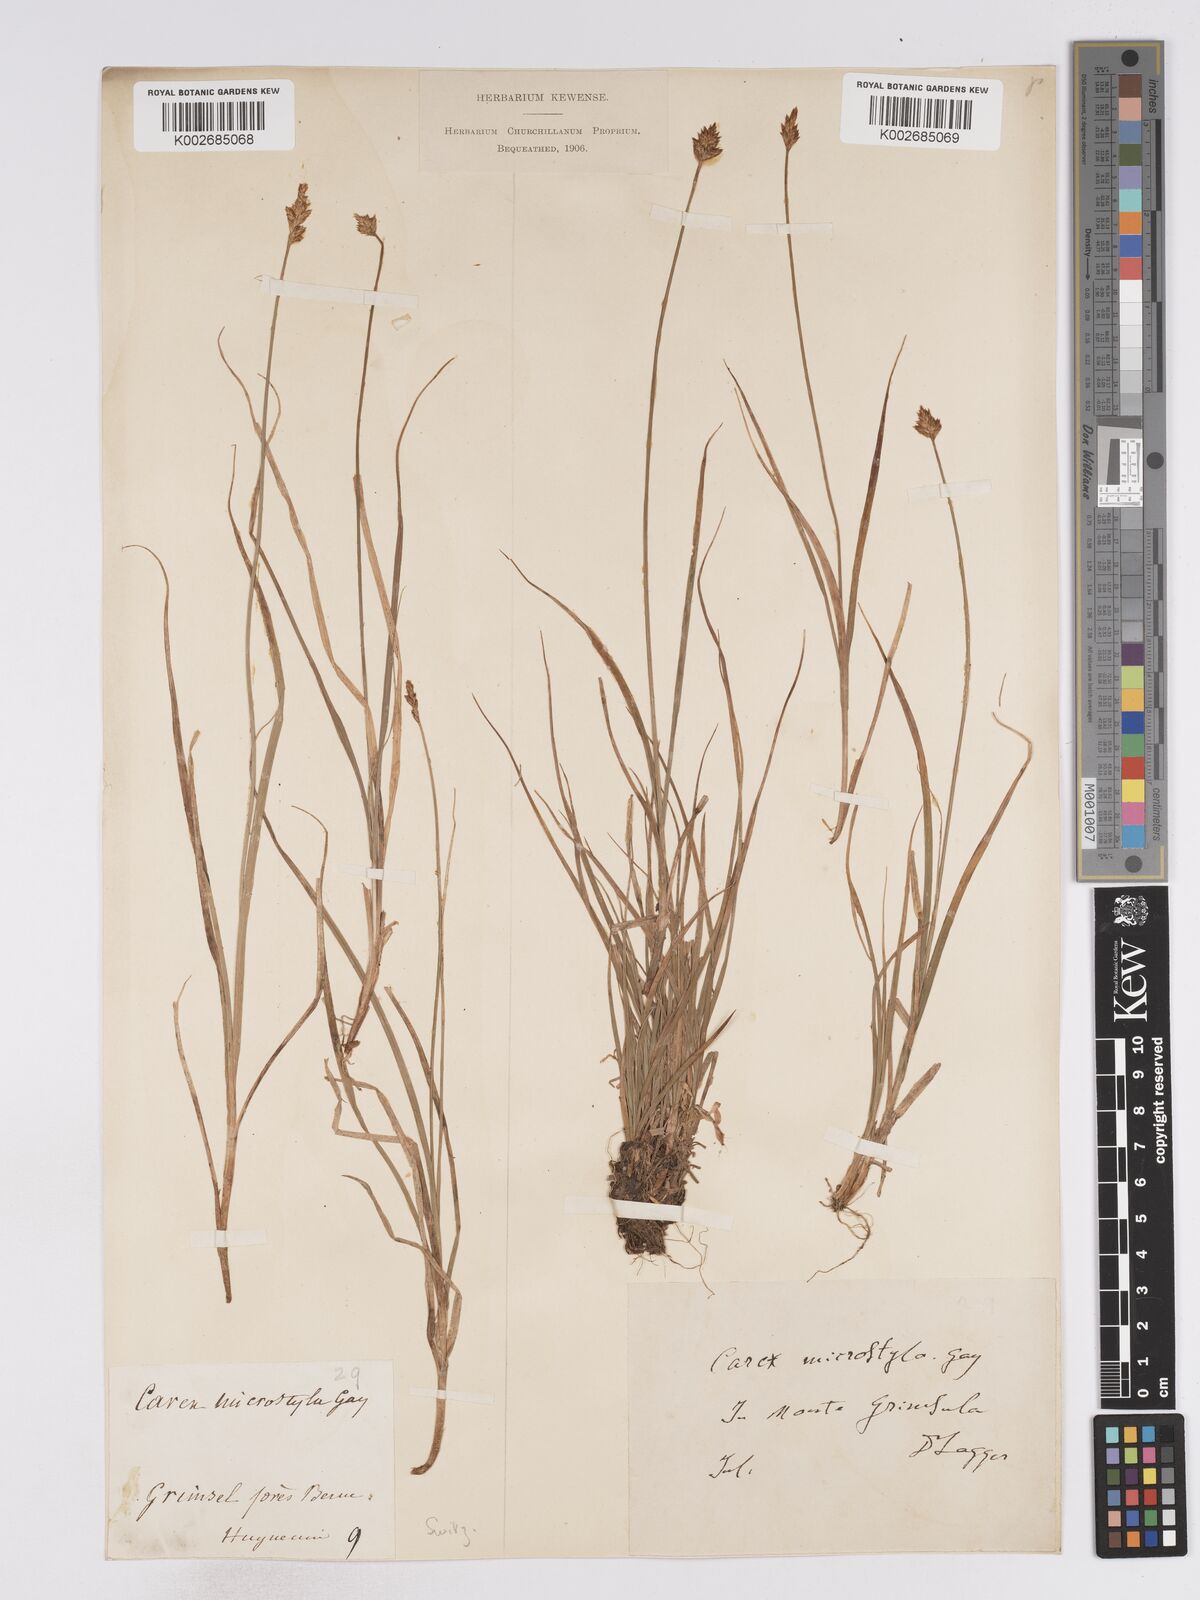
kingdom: Plantae
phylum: Tracheophyta
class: Liliopsida
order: Poales
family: Cyperaceae
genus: Carex
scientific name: Carex microstyla
